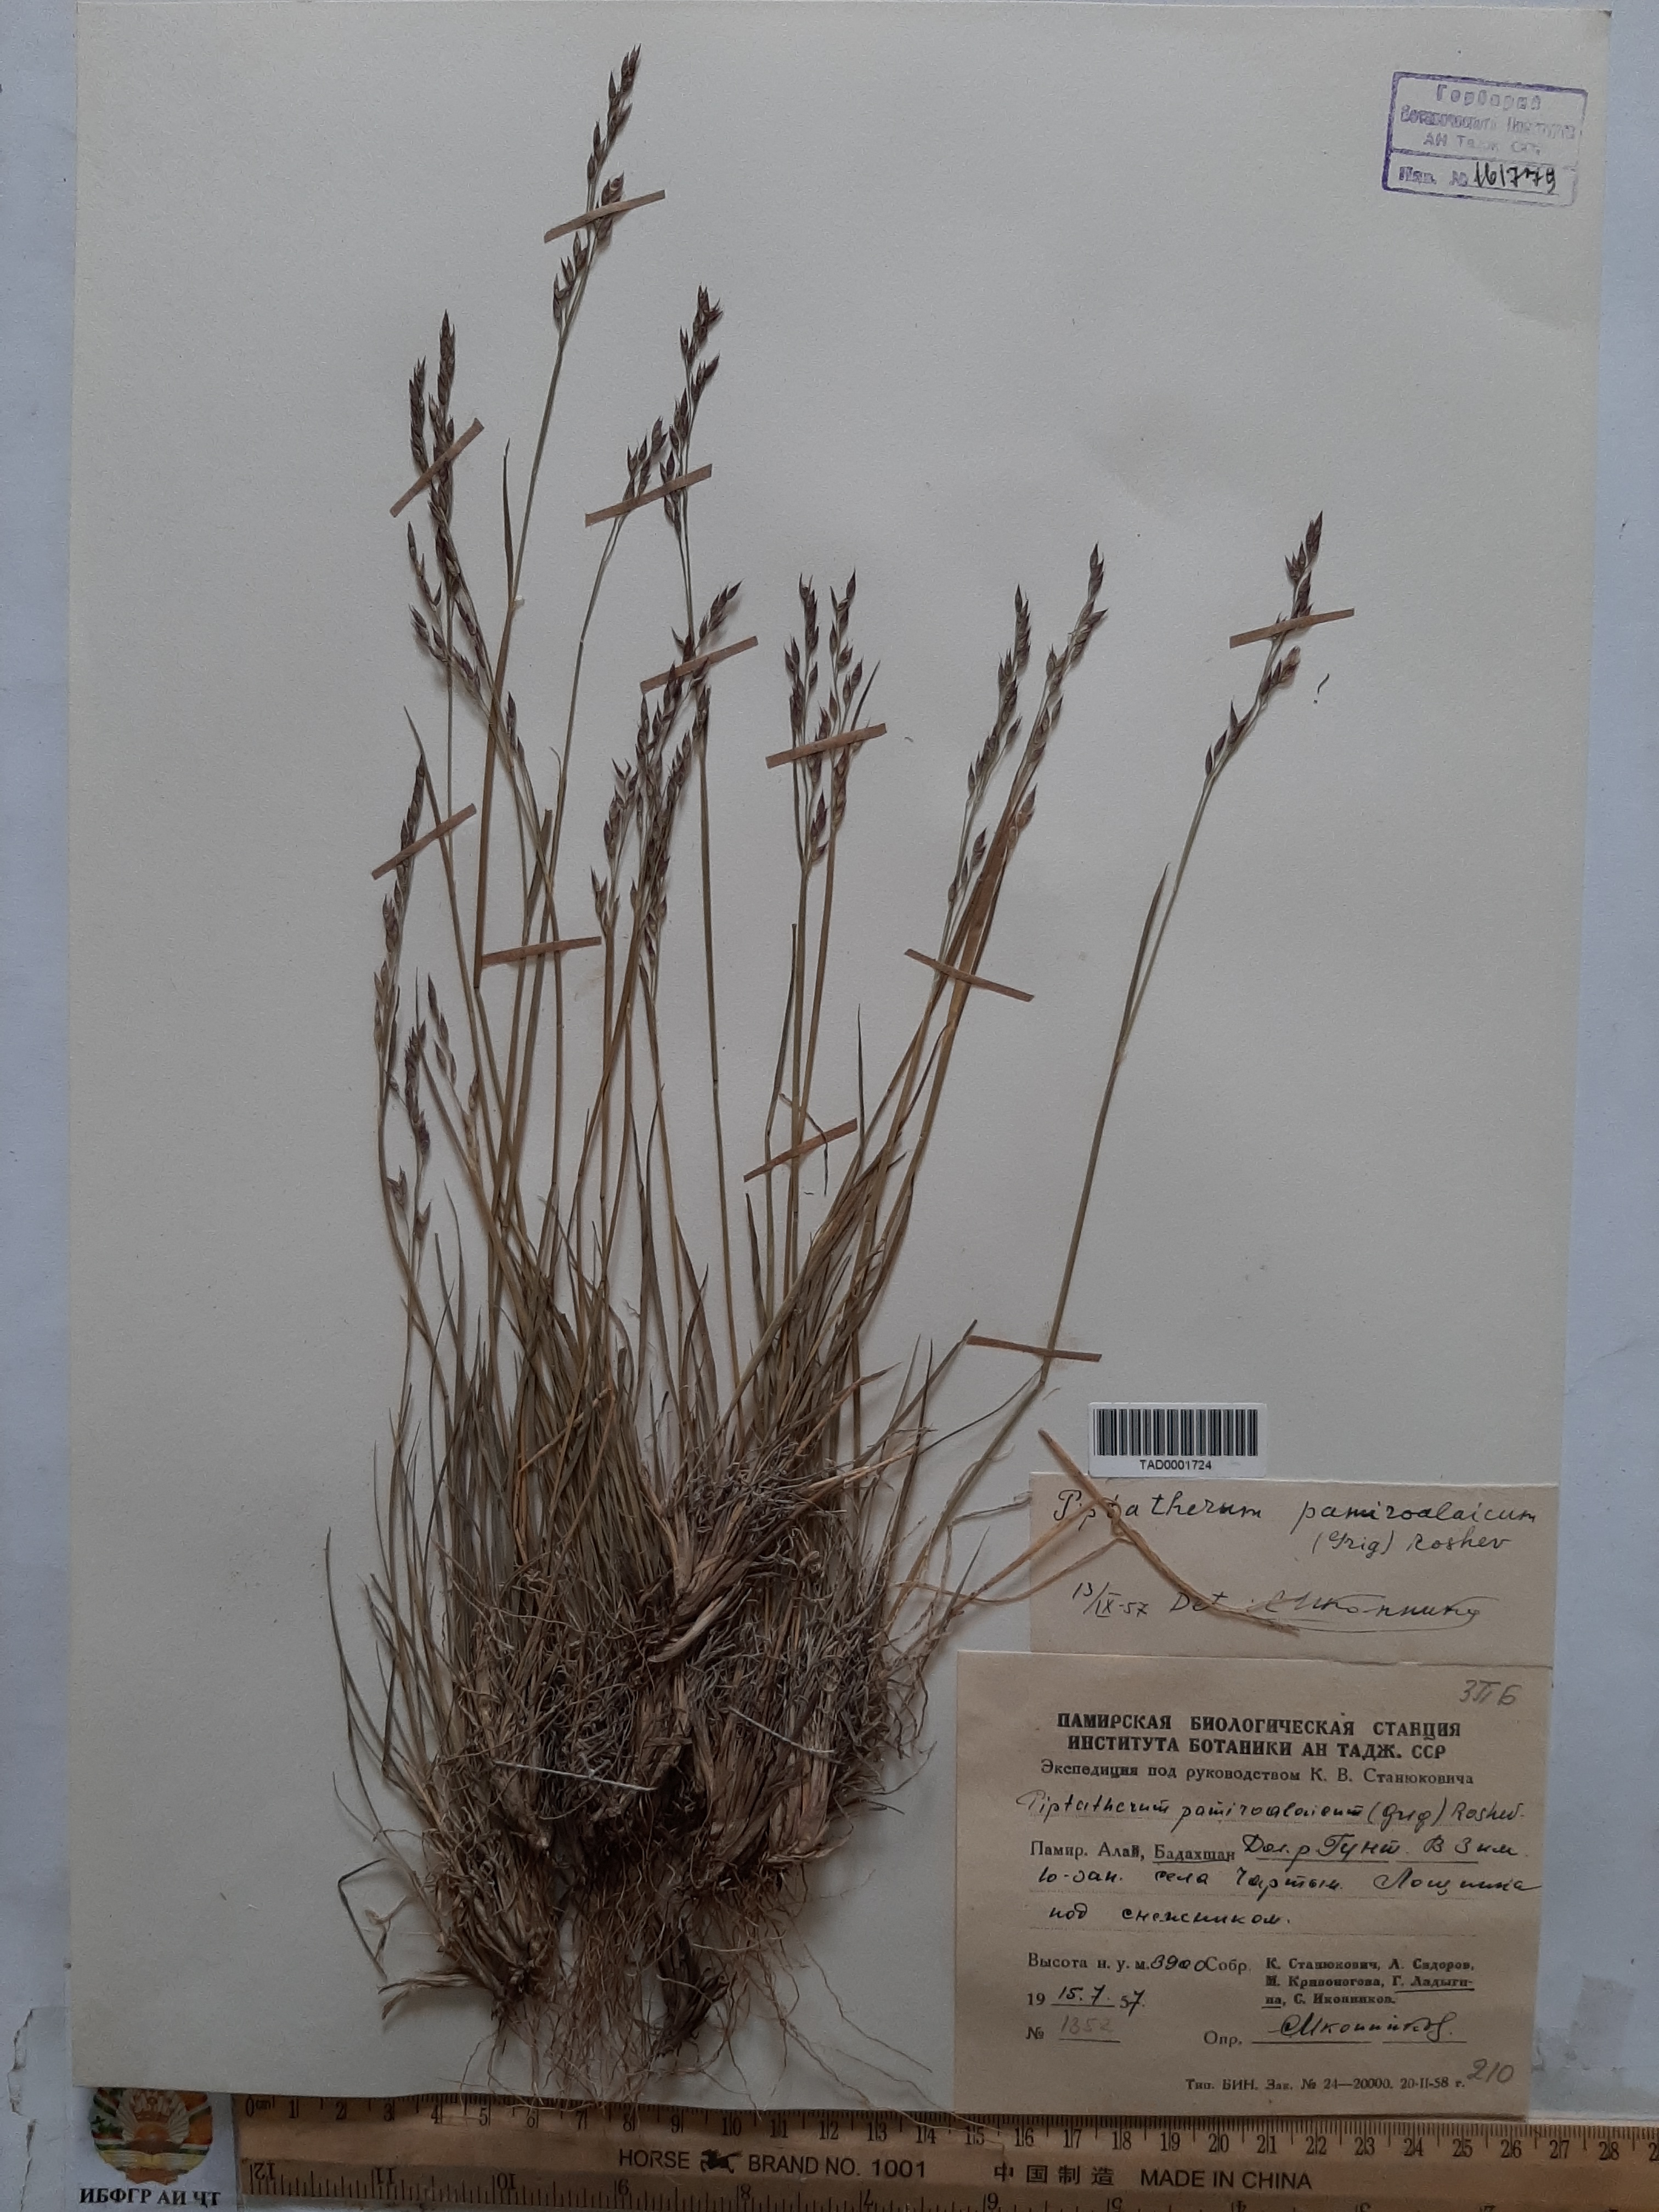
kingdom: Plantae
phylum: Tracheophyta
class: Liliopsida
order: Poales
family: Poaceae
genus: Piptatherum
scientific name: Piptatherum pamiralaicum
